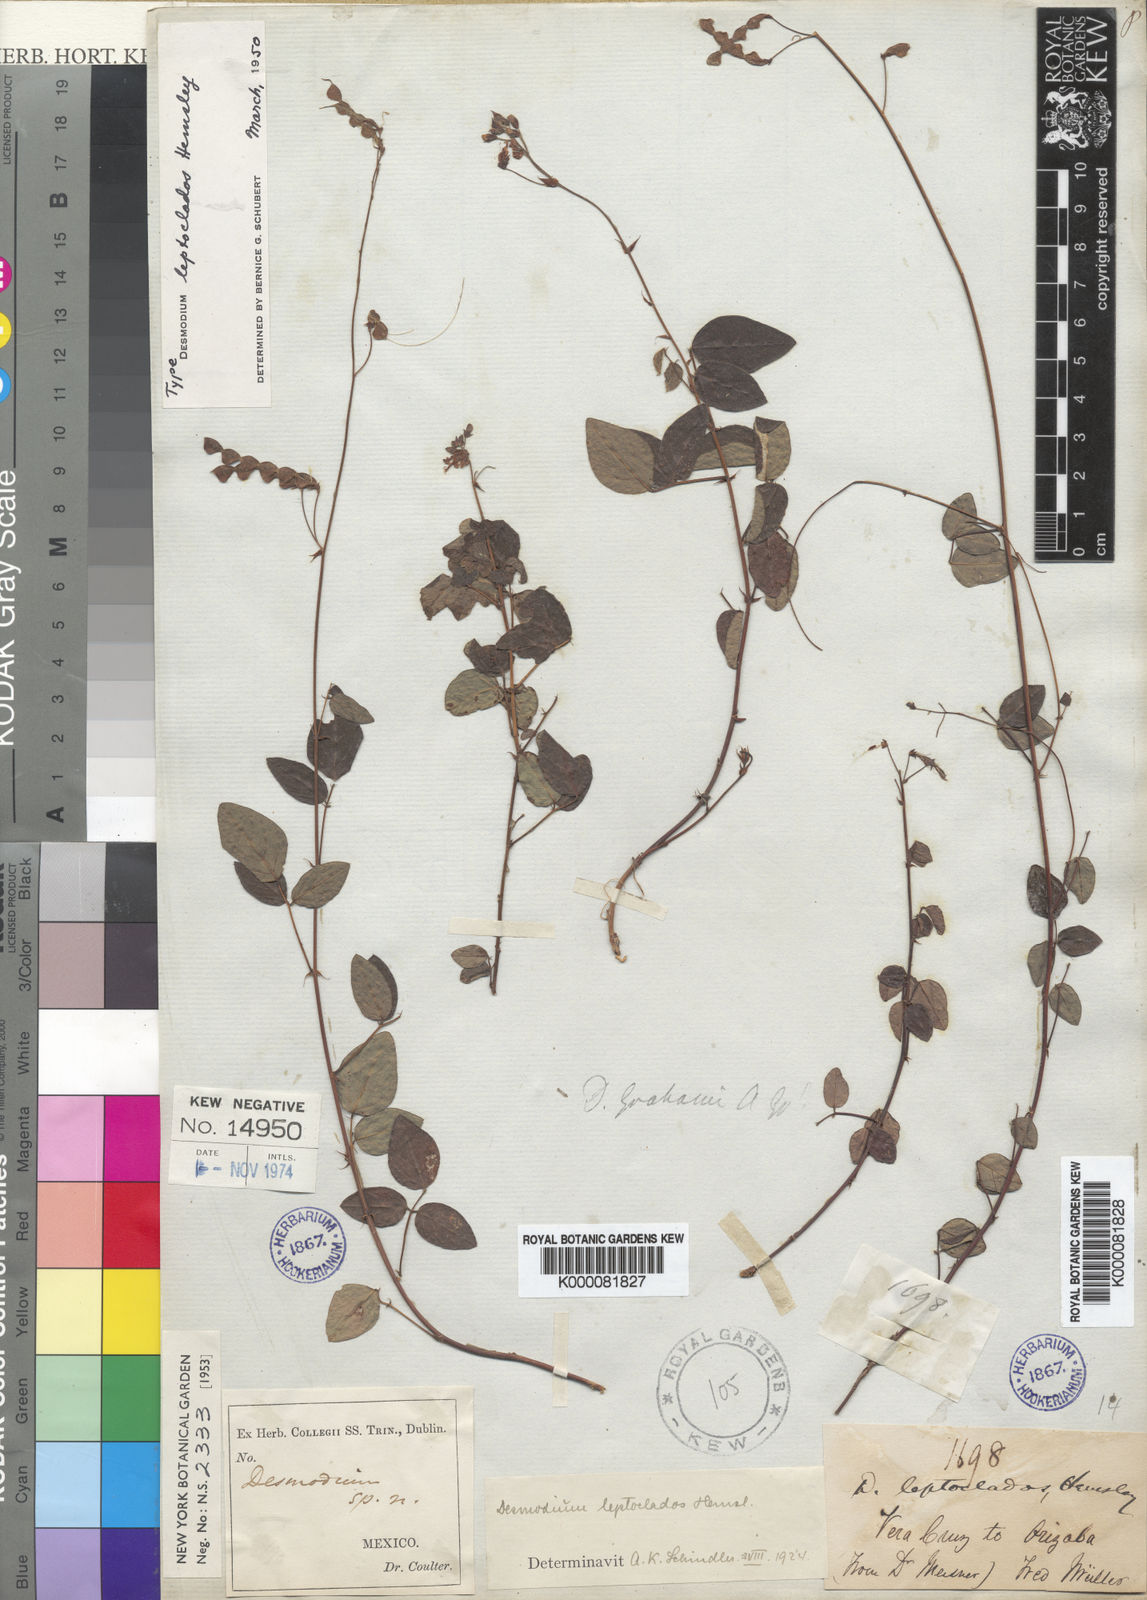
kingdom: Plantae
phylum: Tracheophyta
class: Magnoliopsida
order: Fabales
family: Fabaceae
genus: Desmodium
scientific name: Desmodium leptoclados
